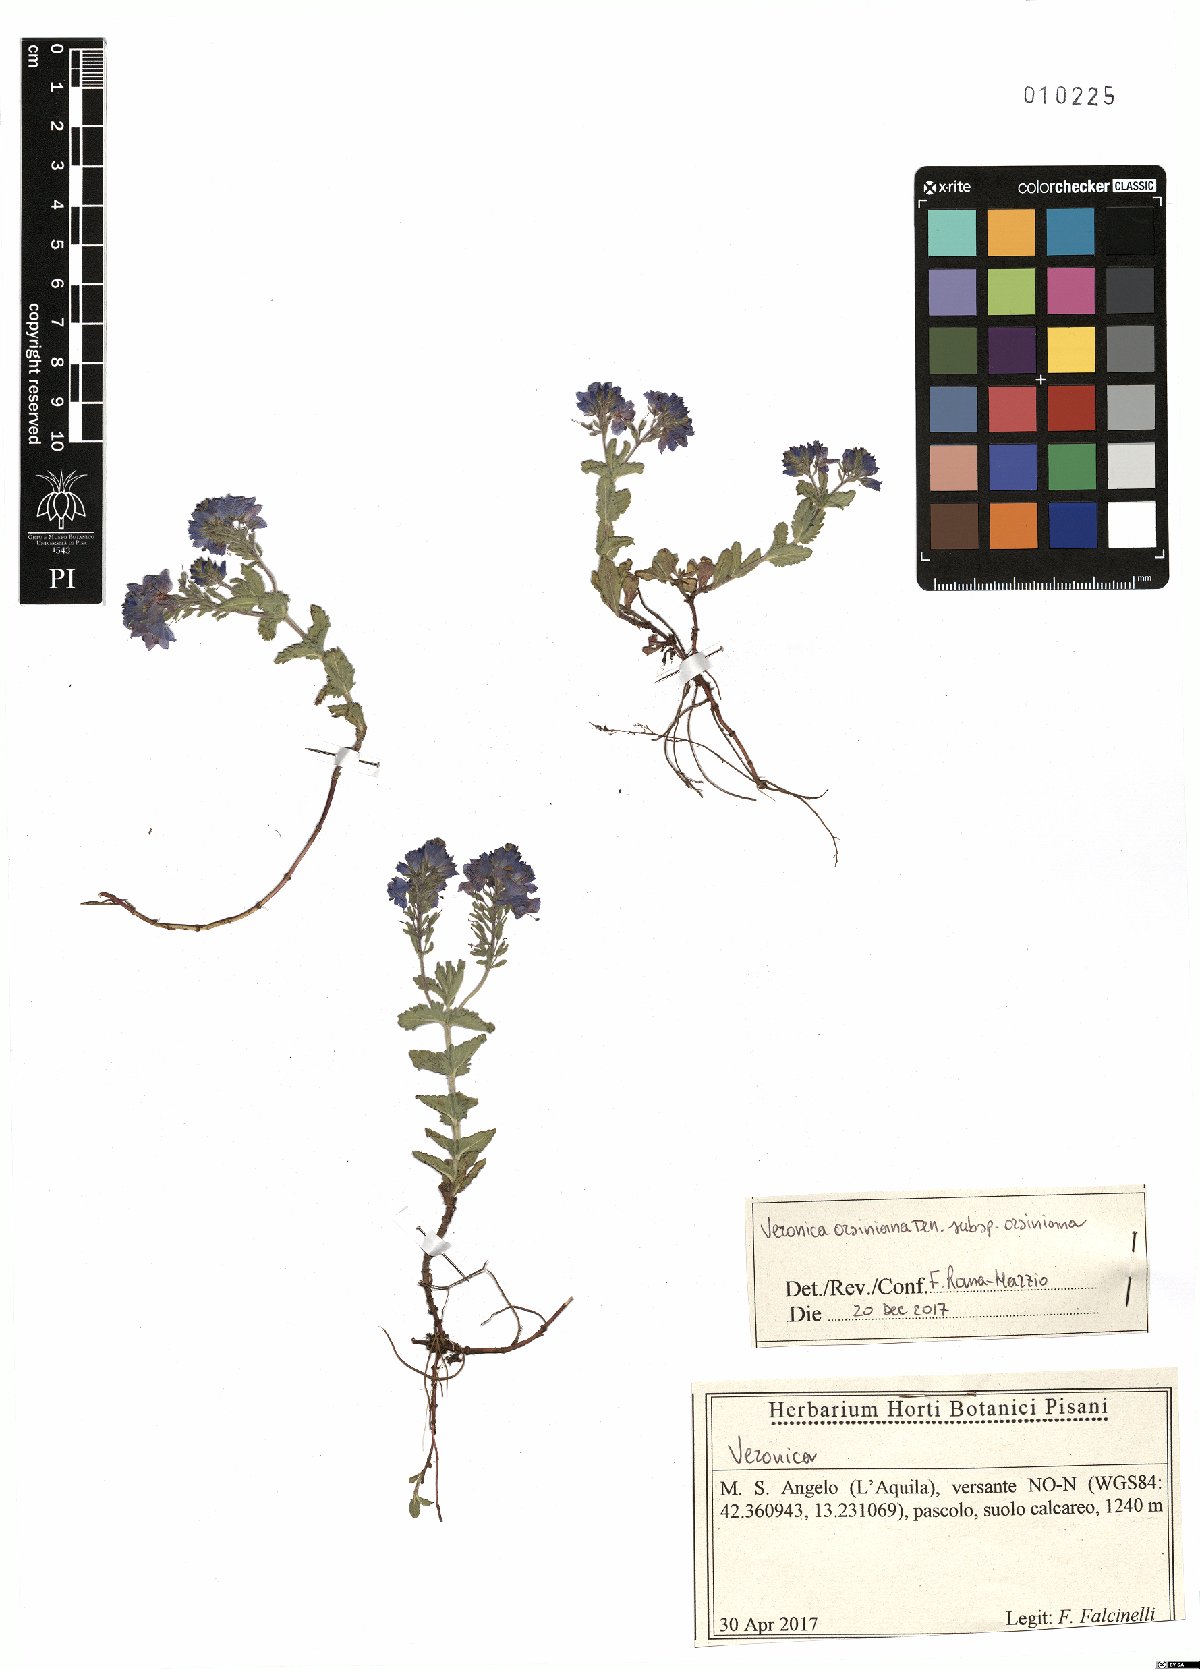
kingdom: Plantae
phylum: Tracheophyta
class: Magnoliopsida
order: Lamiales
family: Plantaginaceae
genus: Veronica
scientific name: Veronica orsiniana
